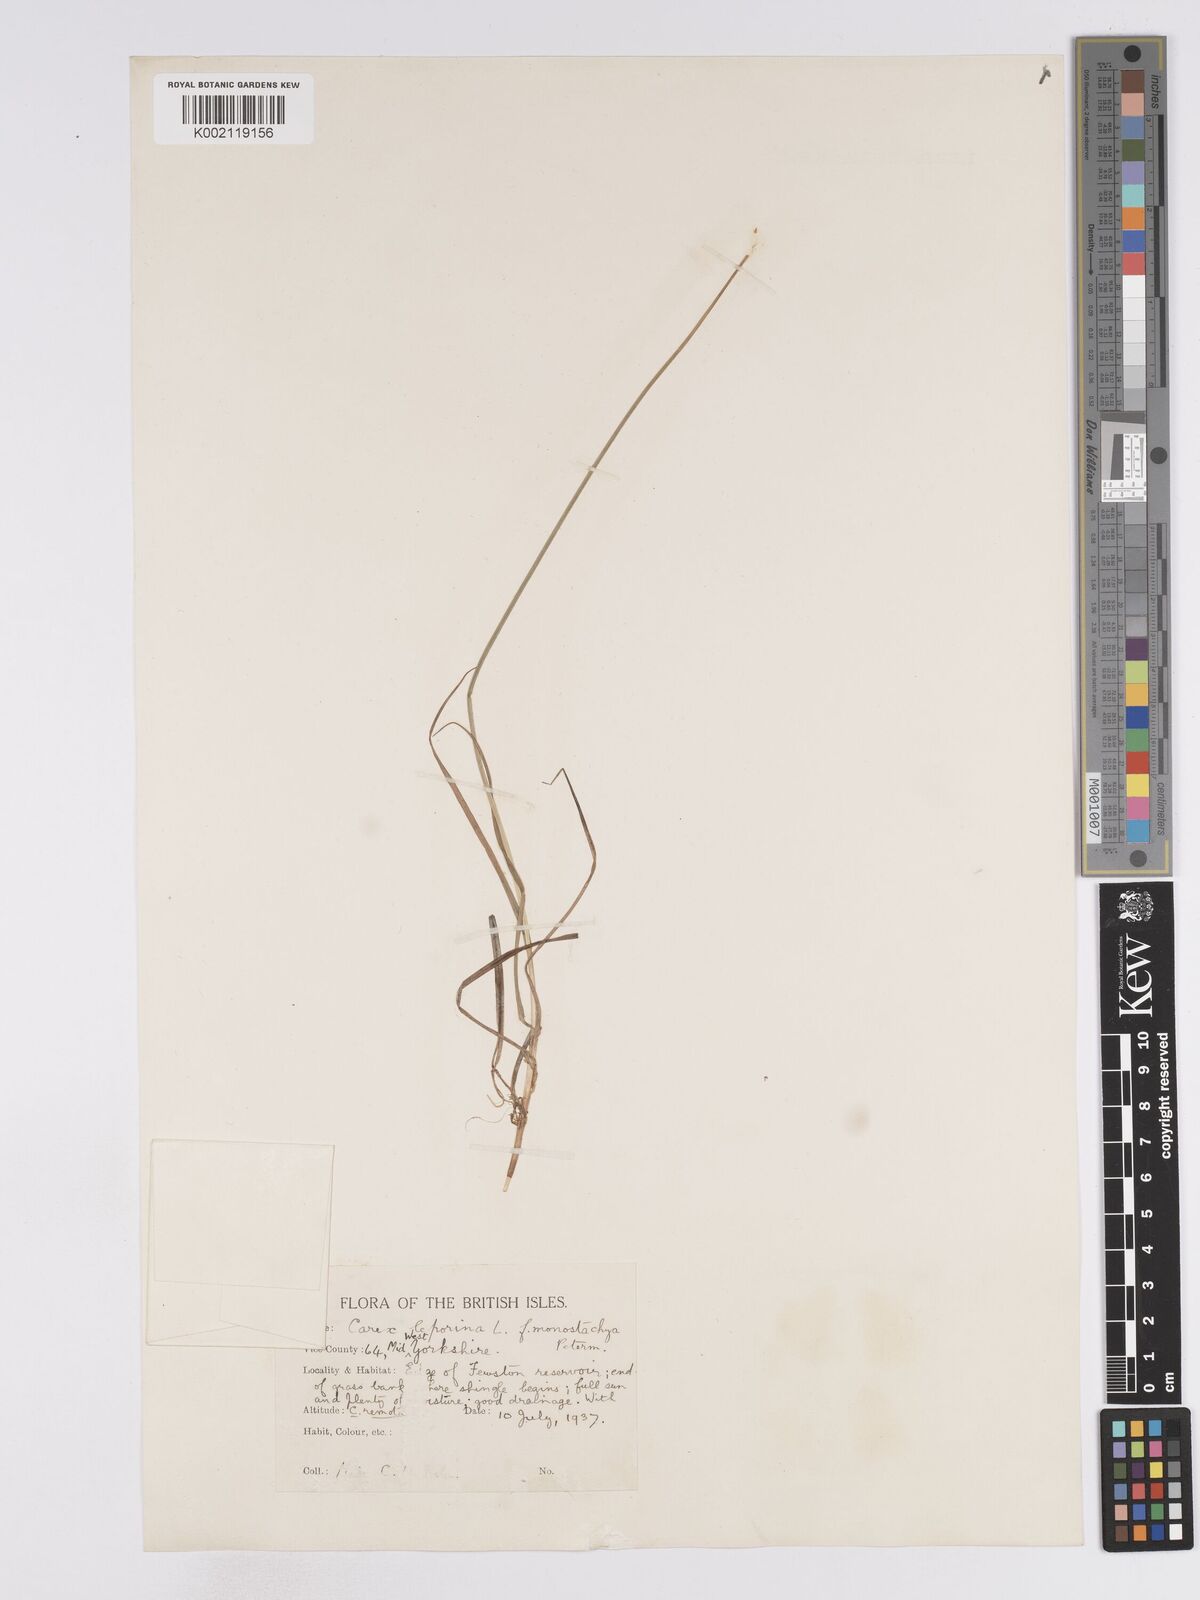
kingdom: Plantae
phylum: Tracheophyta
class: Liliopsida
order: Poales
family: Cyperaceae
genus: Carex
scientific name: Carex leporina
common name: Oval sedge
